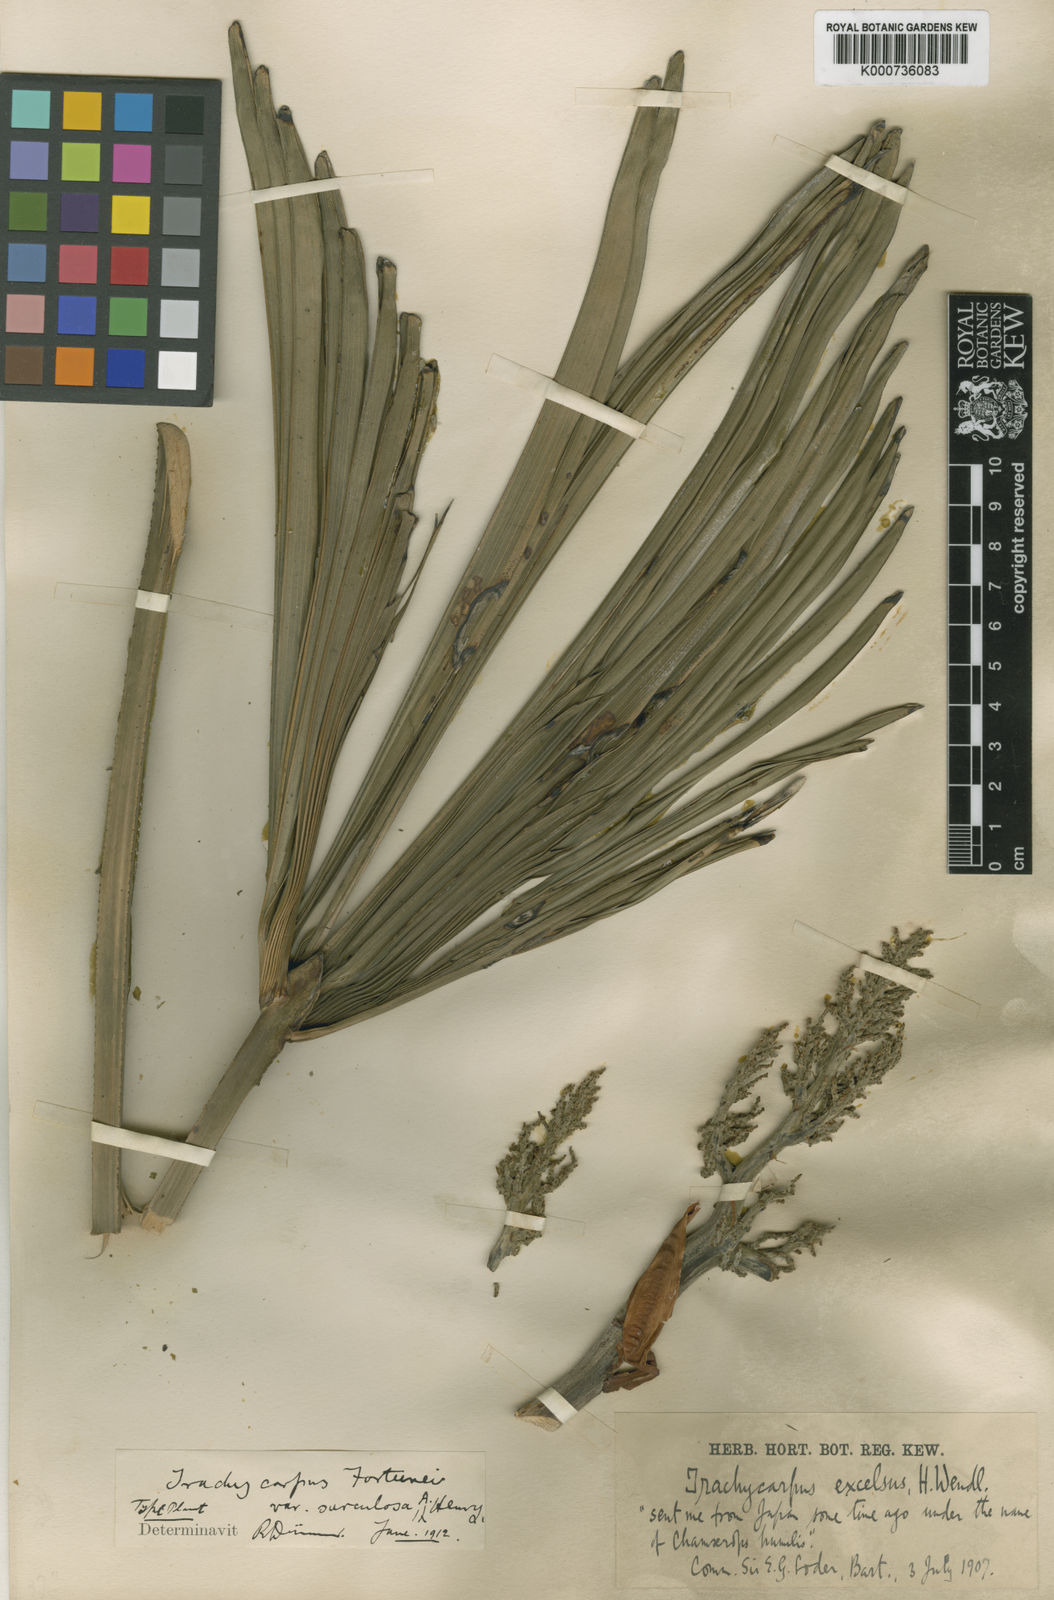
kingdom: Plantae
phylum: Tracheophyta
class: Liliopsida
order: Arecales
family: Arecaceae
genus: Trachycarpus
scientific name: Trachycarpus fortunei
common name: Chusan palm
